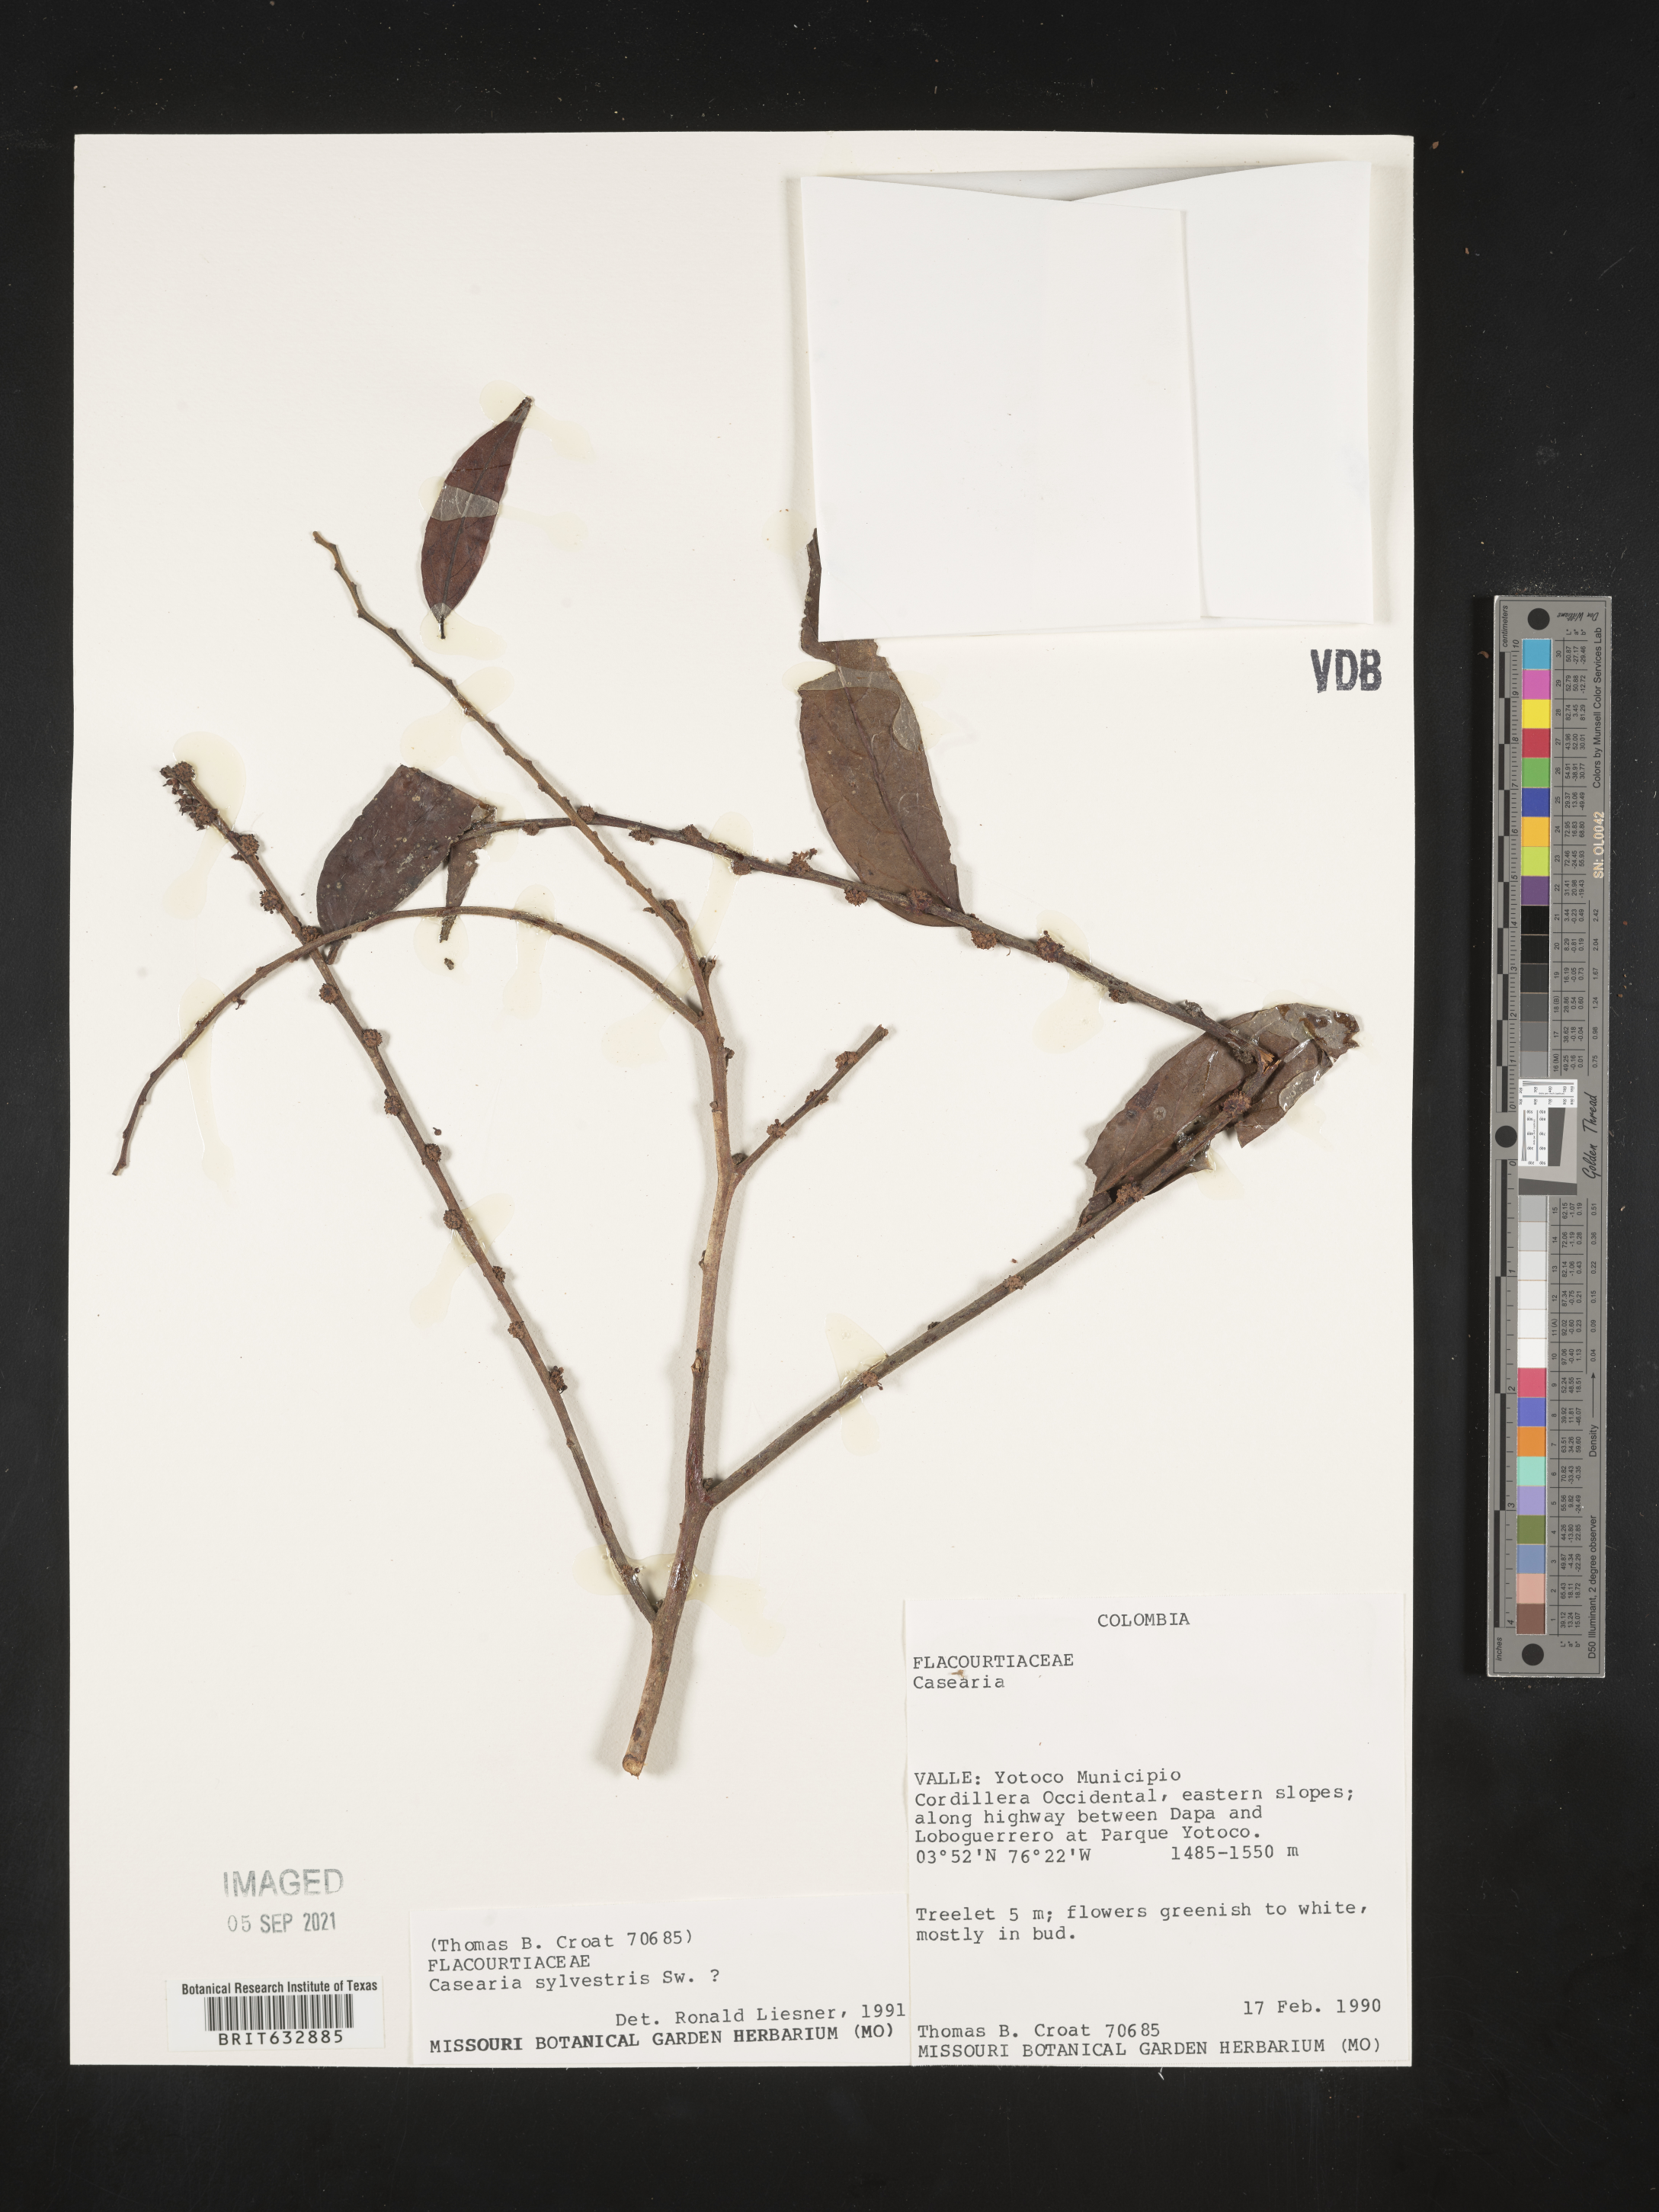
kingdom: Plantae
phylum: Tracheophyta
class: Magnoliopsida
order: Malpighiales
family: Salicaceae
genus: Casearia
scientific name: Casearia
